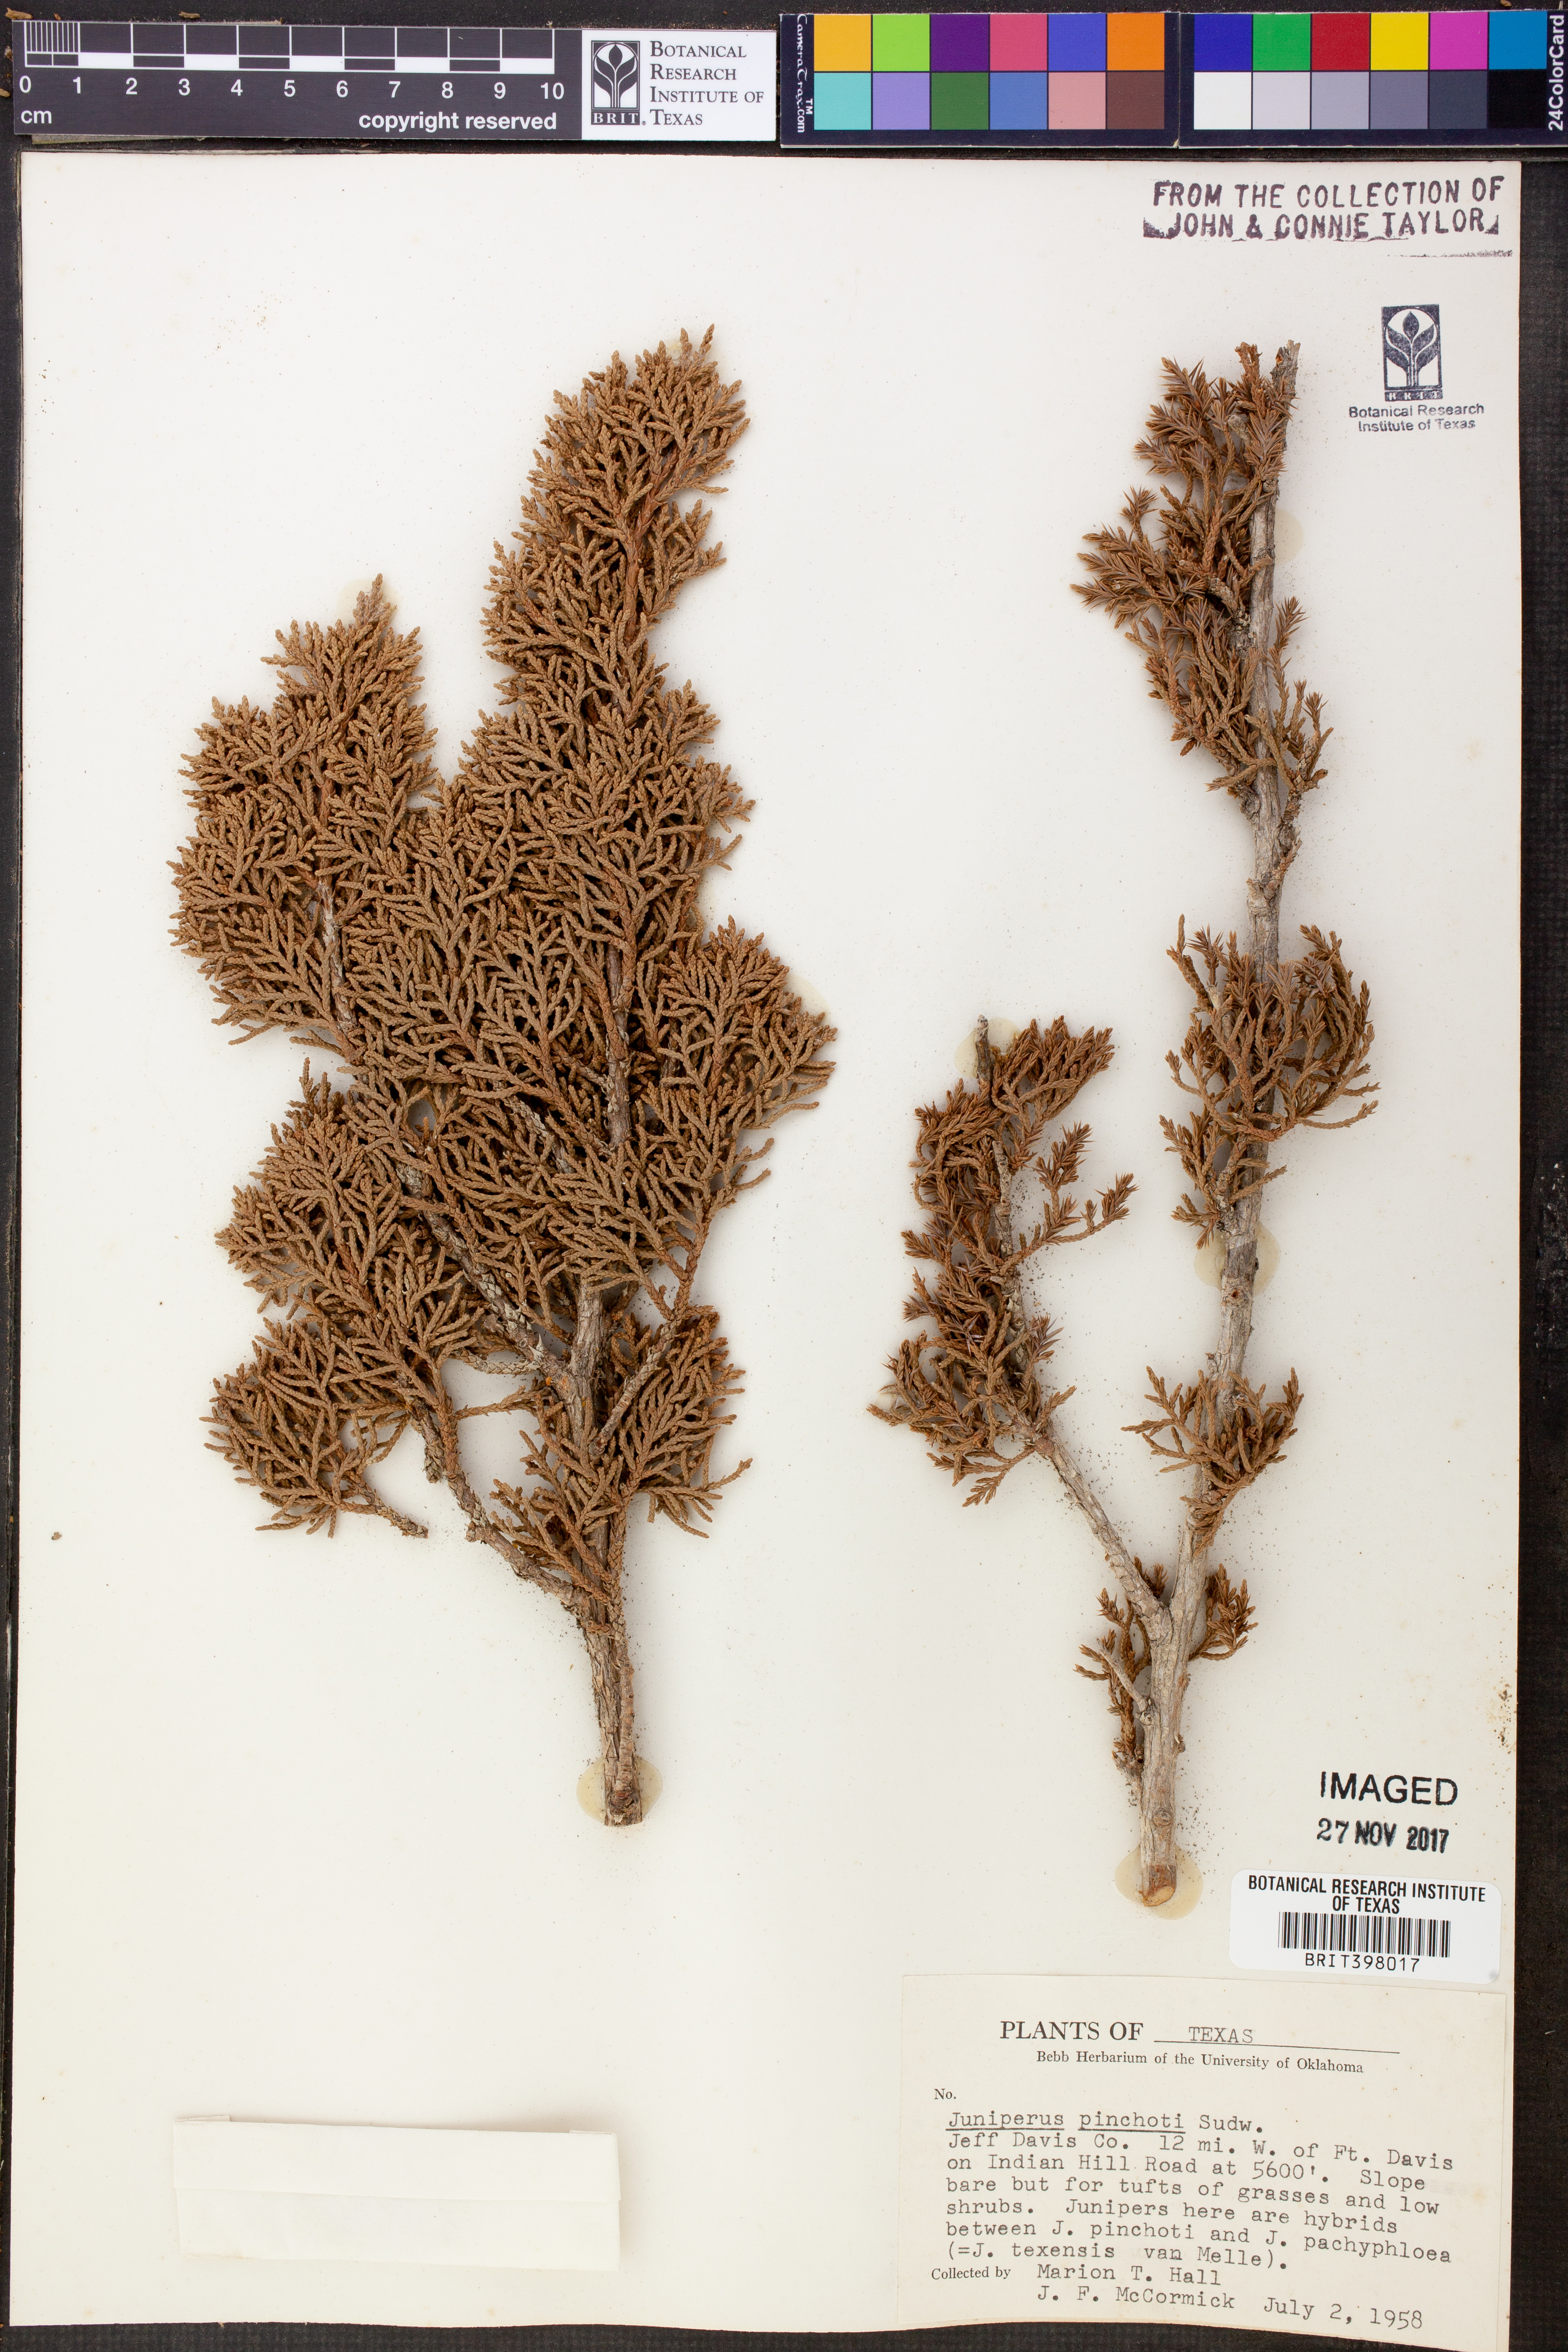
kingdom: Plantae
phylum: Tracheophyta
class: Pinopsida
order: Pinales
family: Cupressaceae
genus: Juniperus
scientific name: Juniperus pinchotii
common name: Pinchot juniper
